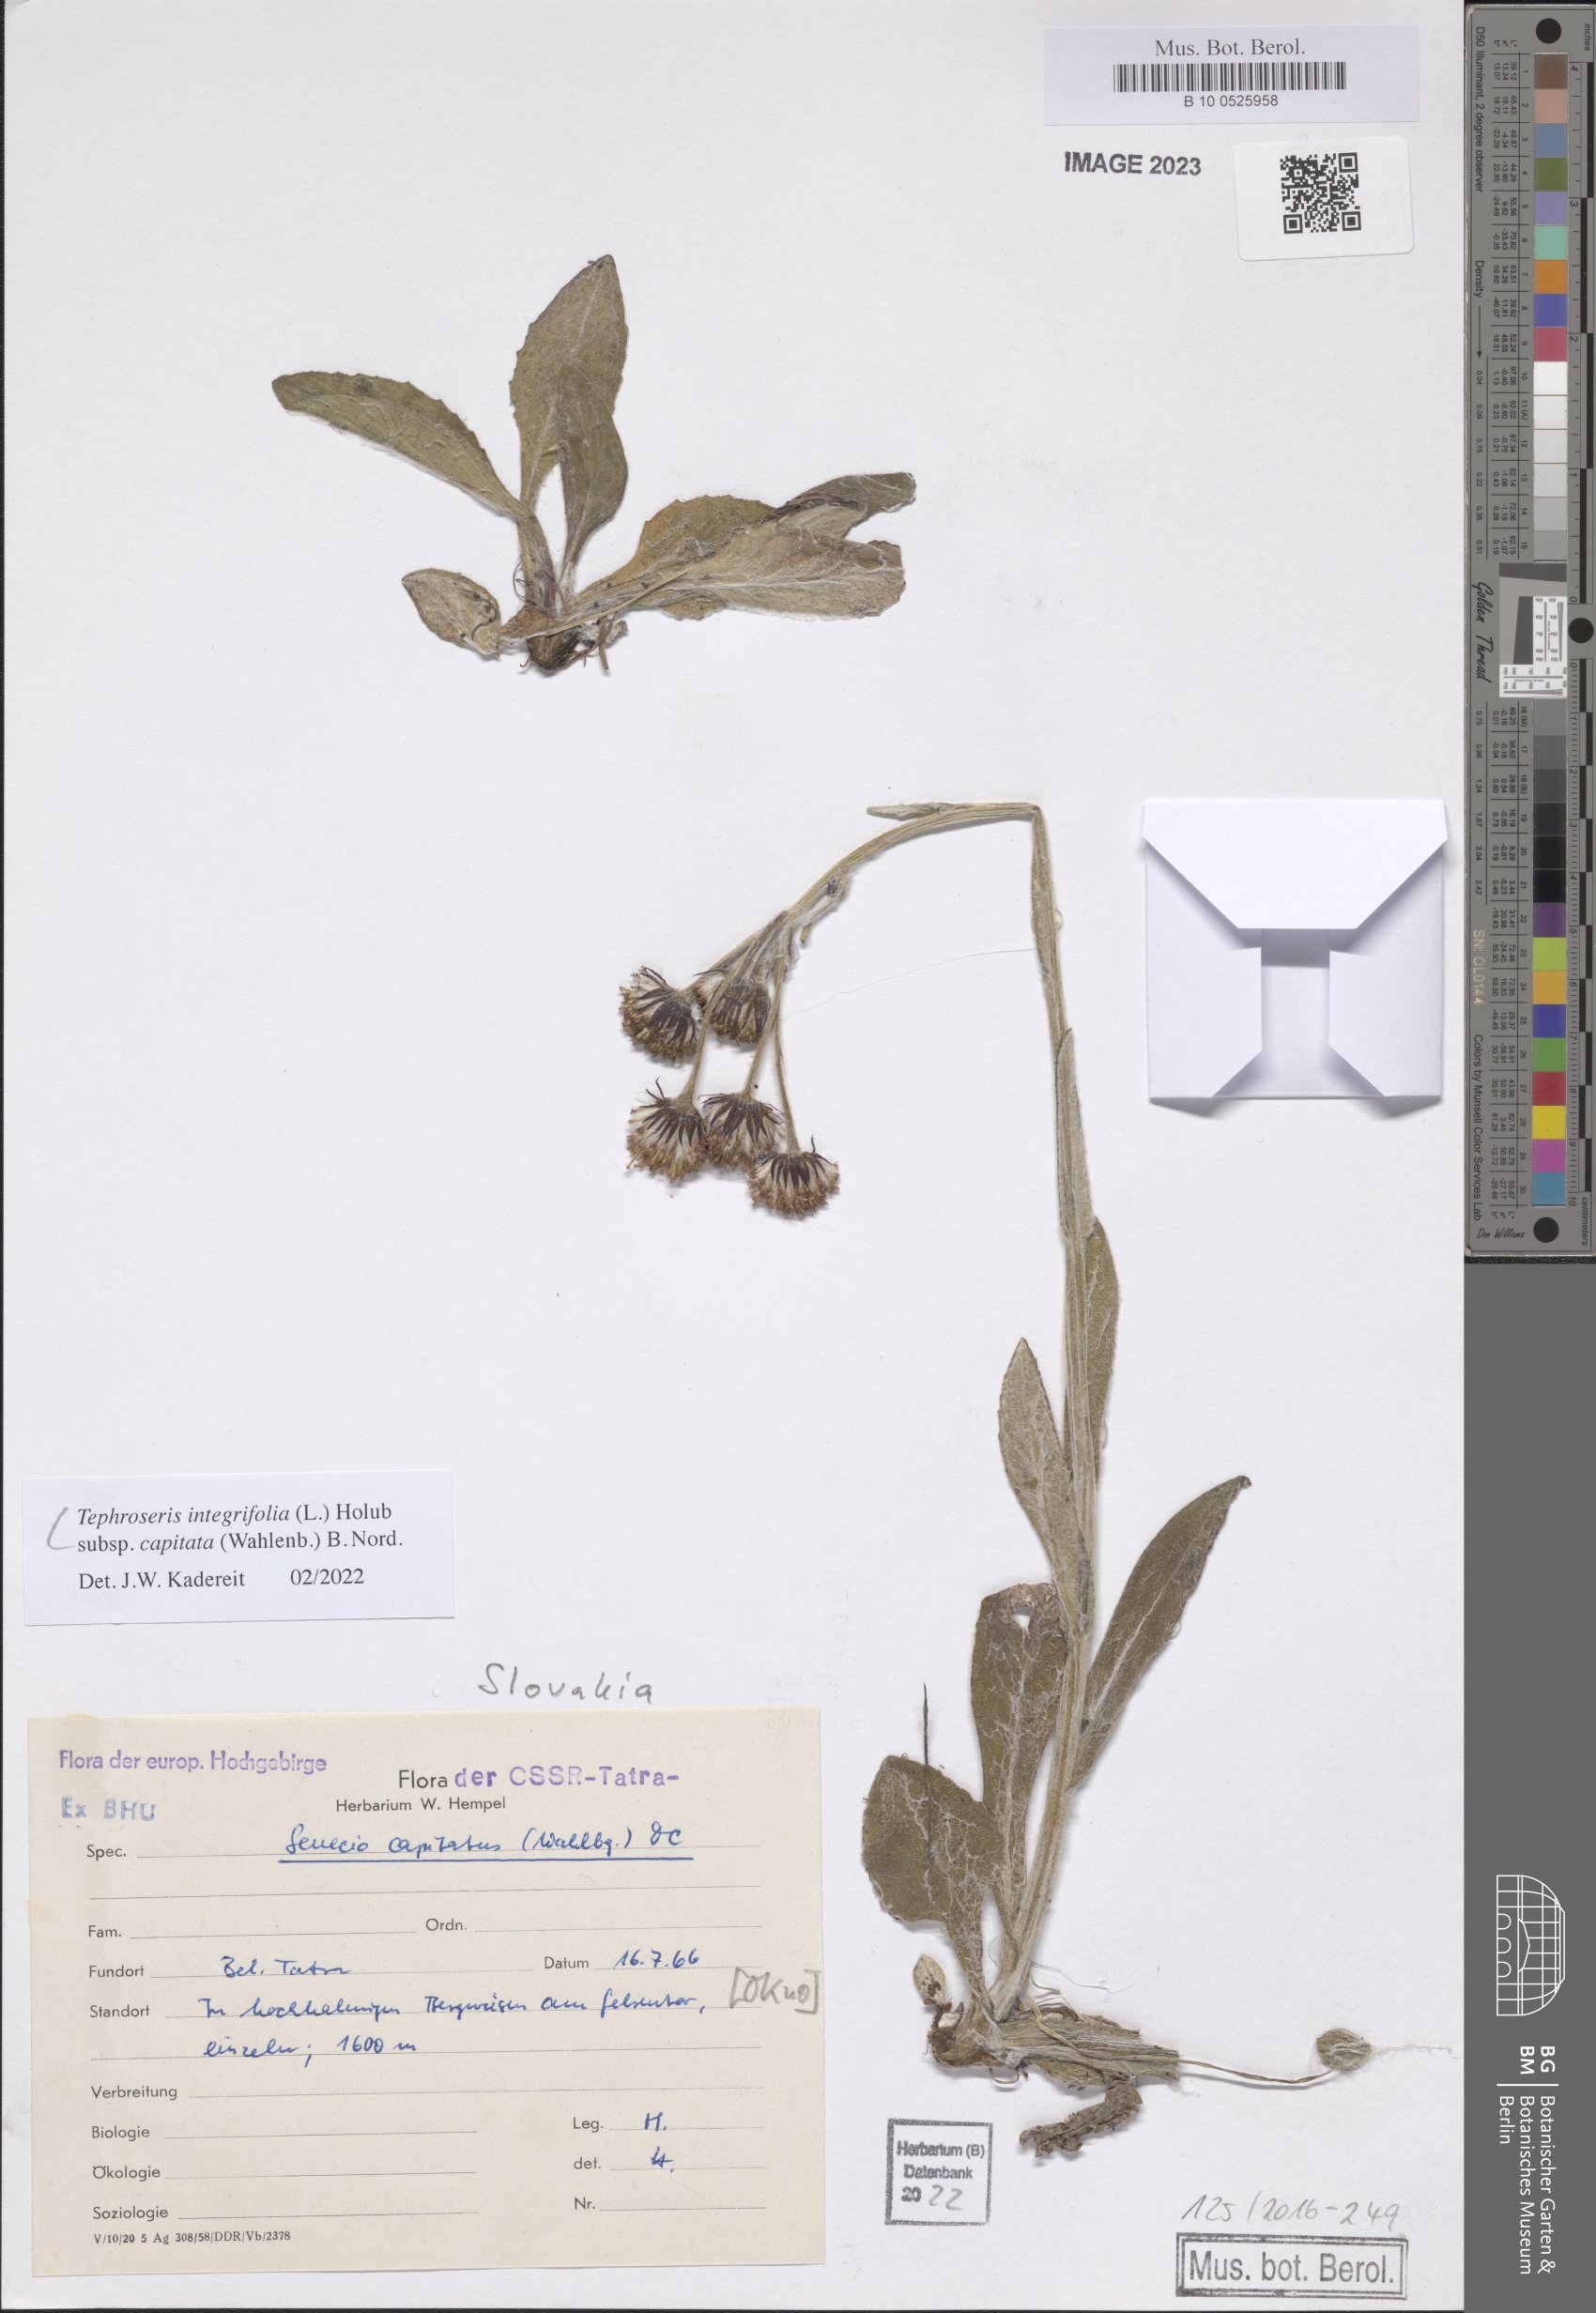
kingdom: Plantae
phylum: Tracheophyta
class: Magnoliopsida
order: Asterales
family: Asteraceae
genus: Tephroseris
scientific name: Tephroseris integrifolia
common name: Field fleawort
